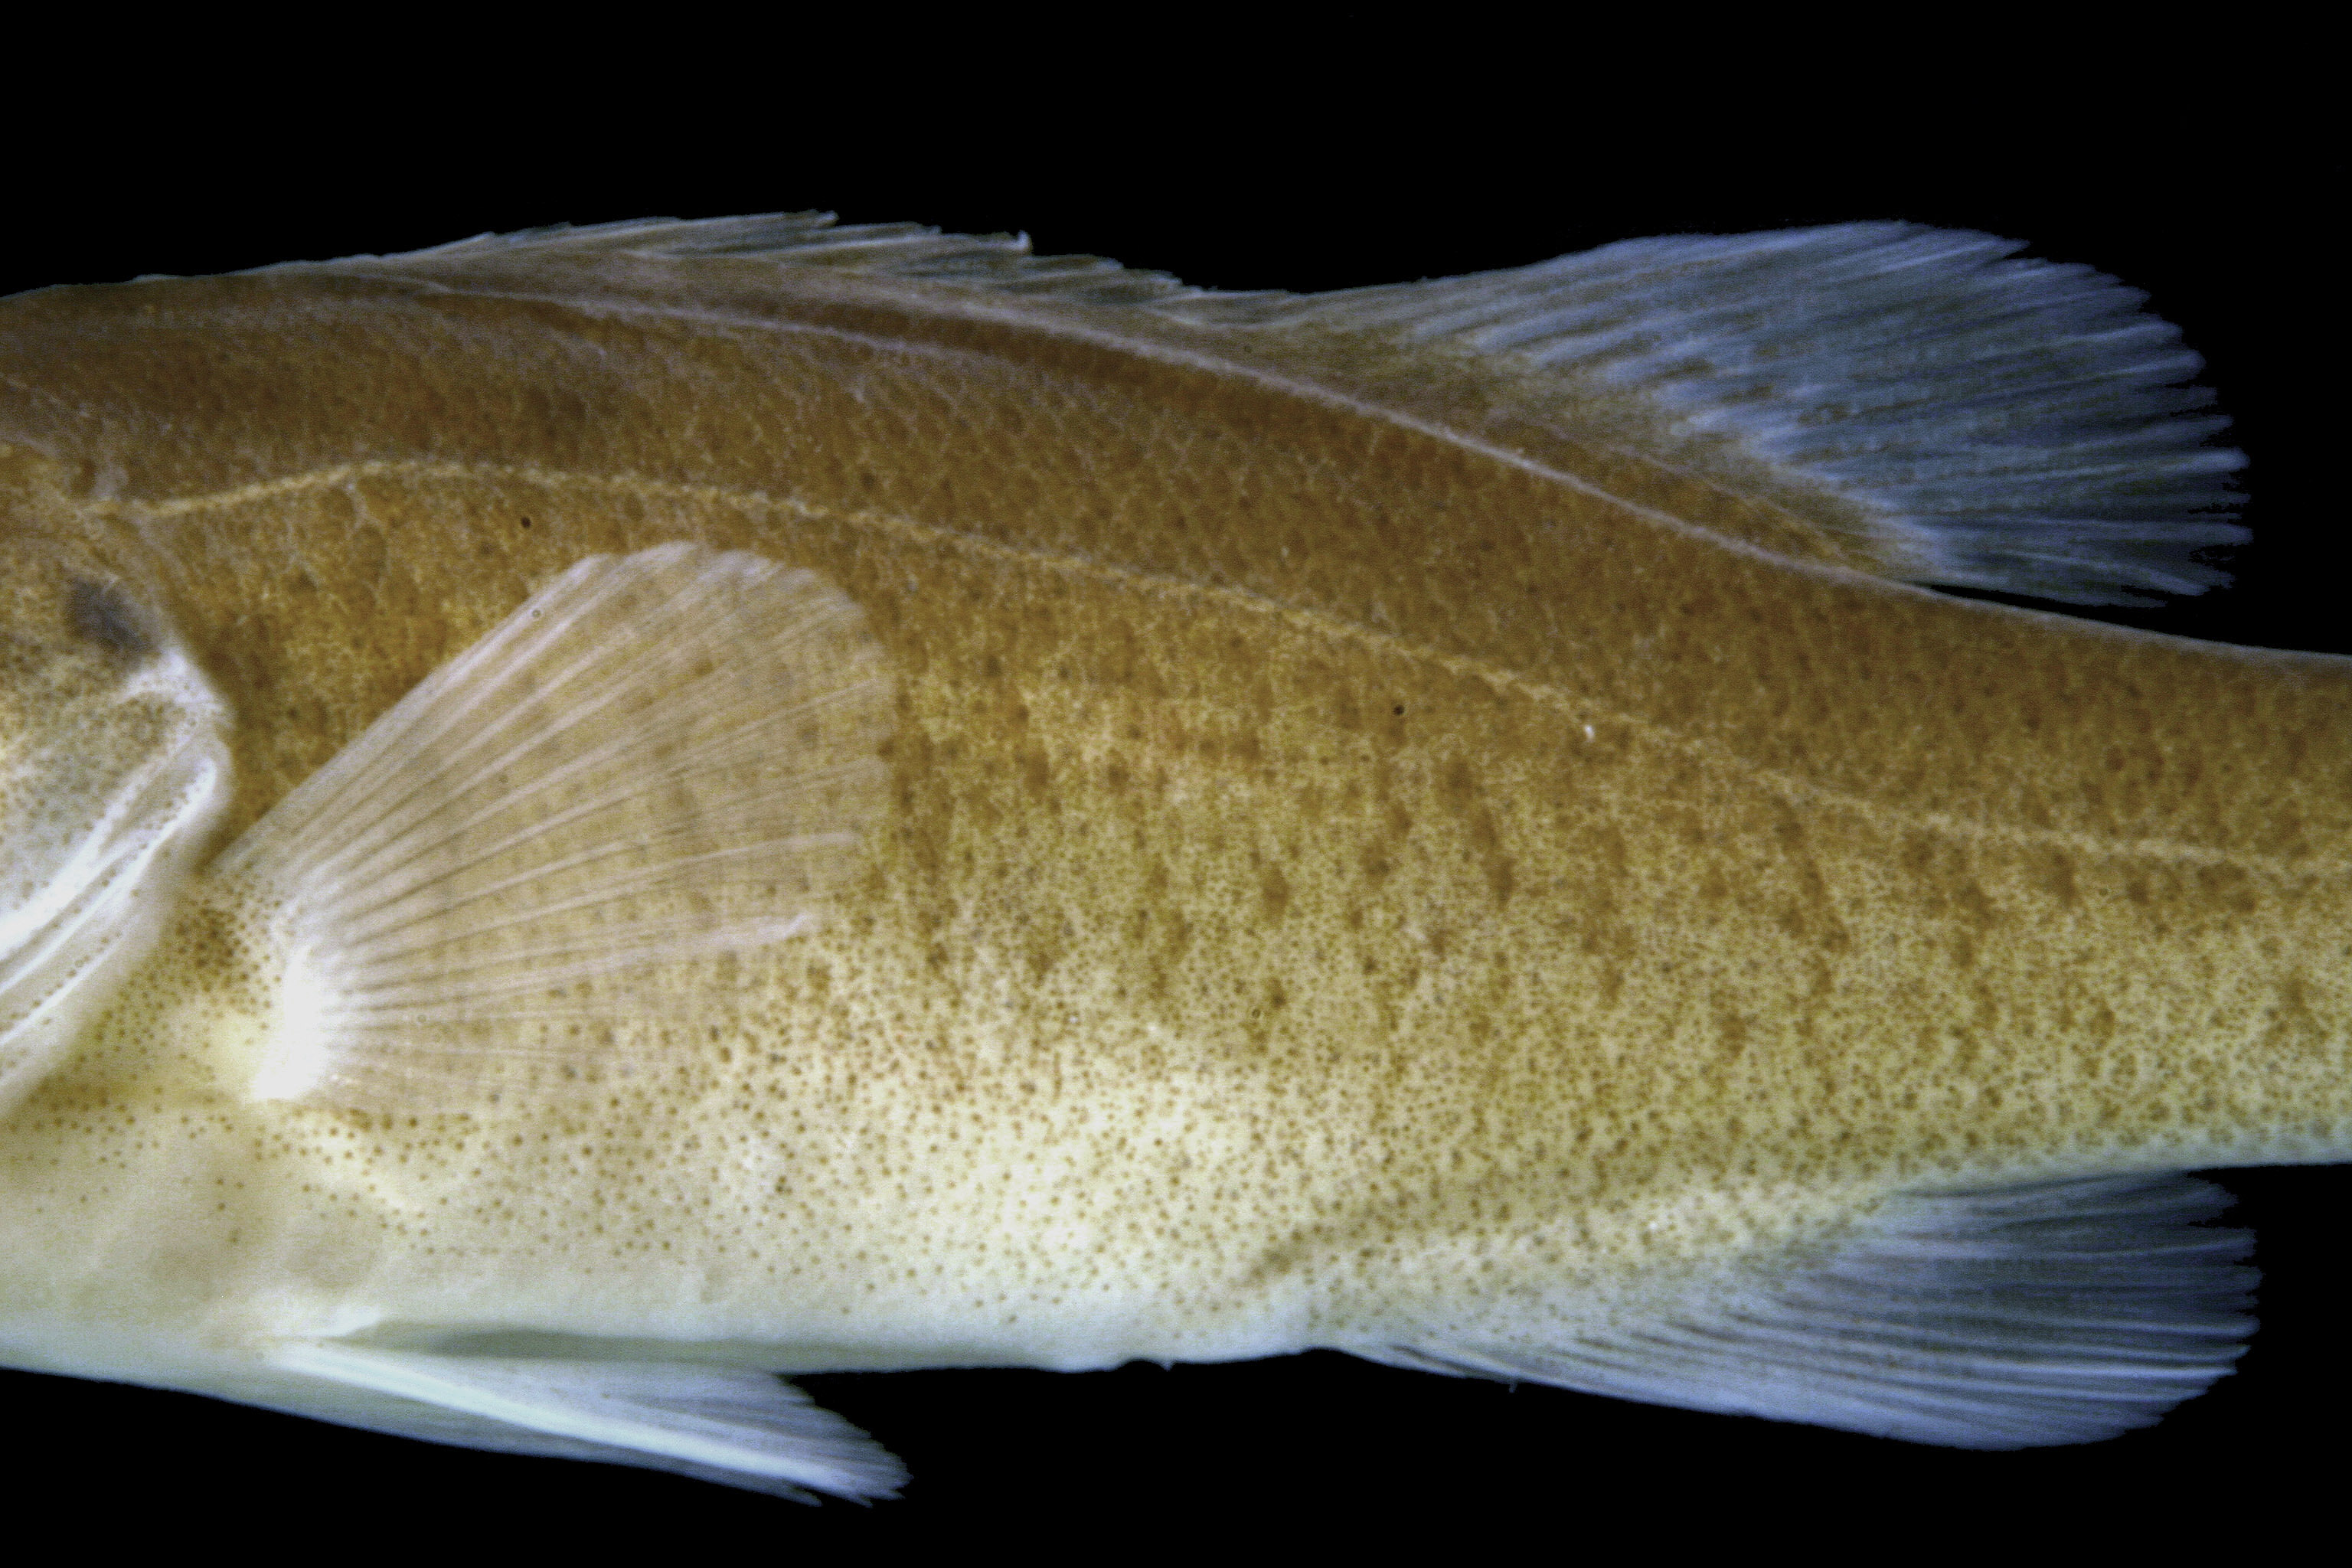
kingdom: Animalia
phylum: Chordata
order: Perciformes
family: Centrarchidae
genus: Micropterus
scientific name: Micropterus dolomieu
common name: Smallmouth bass
